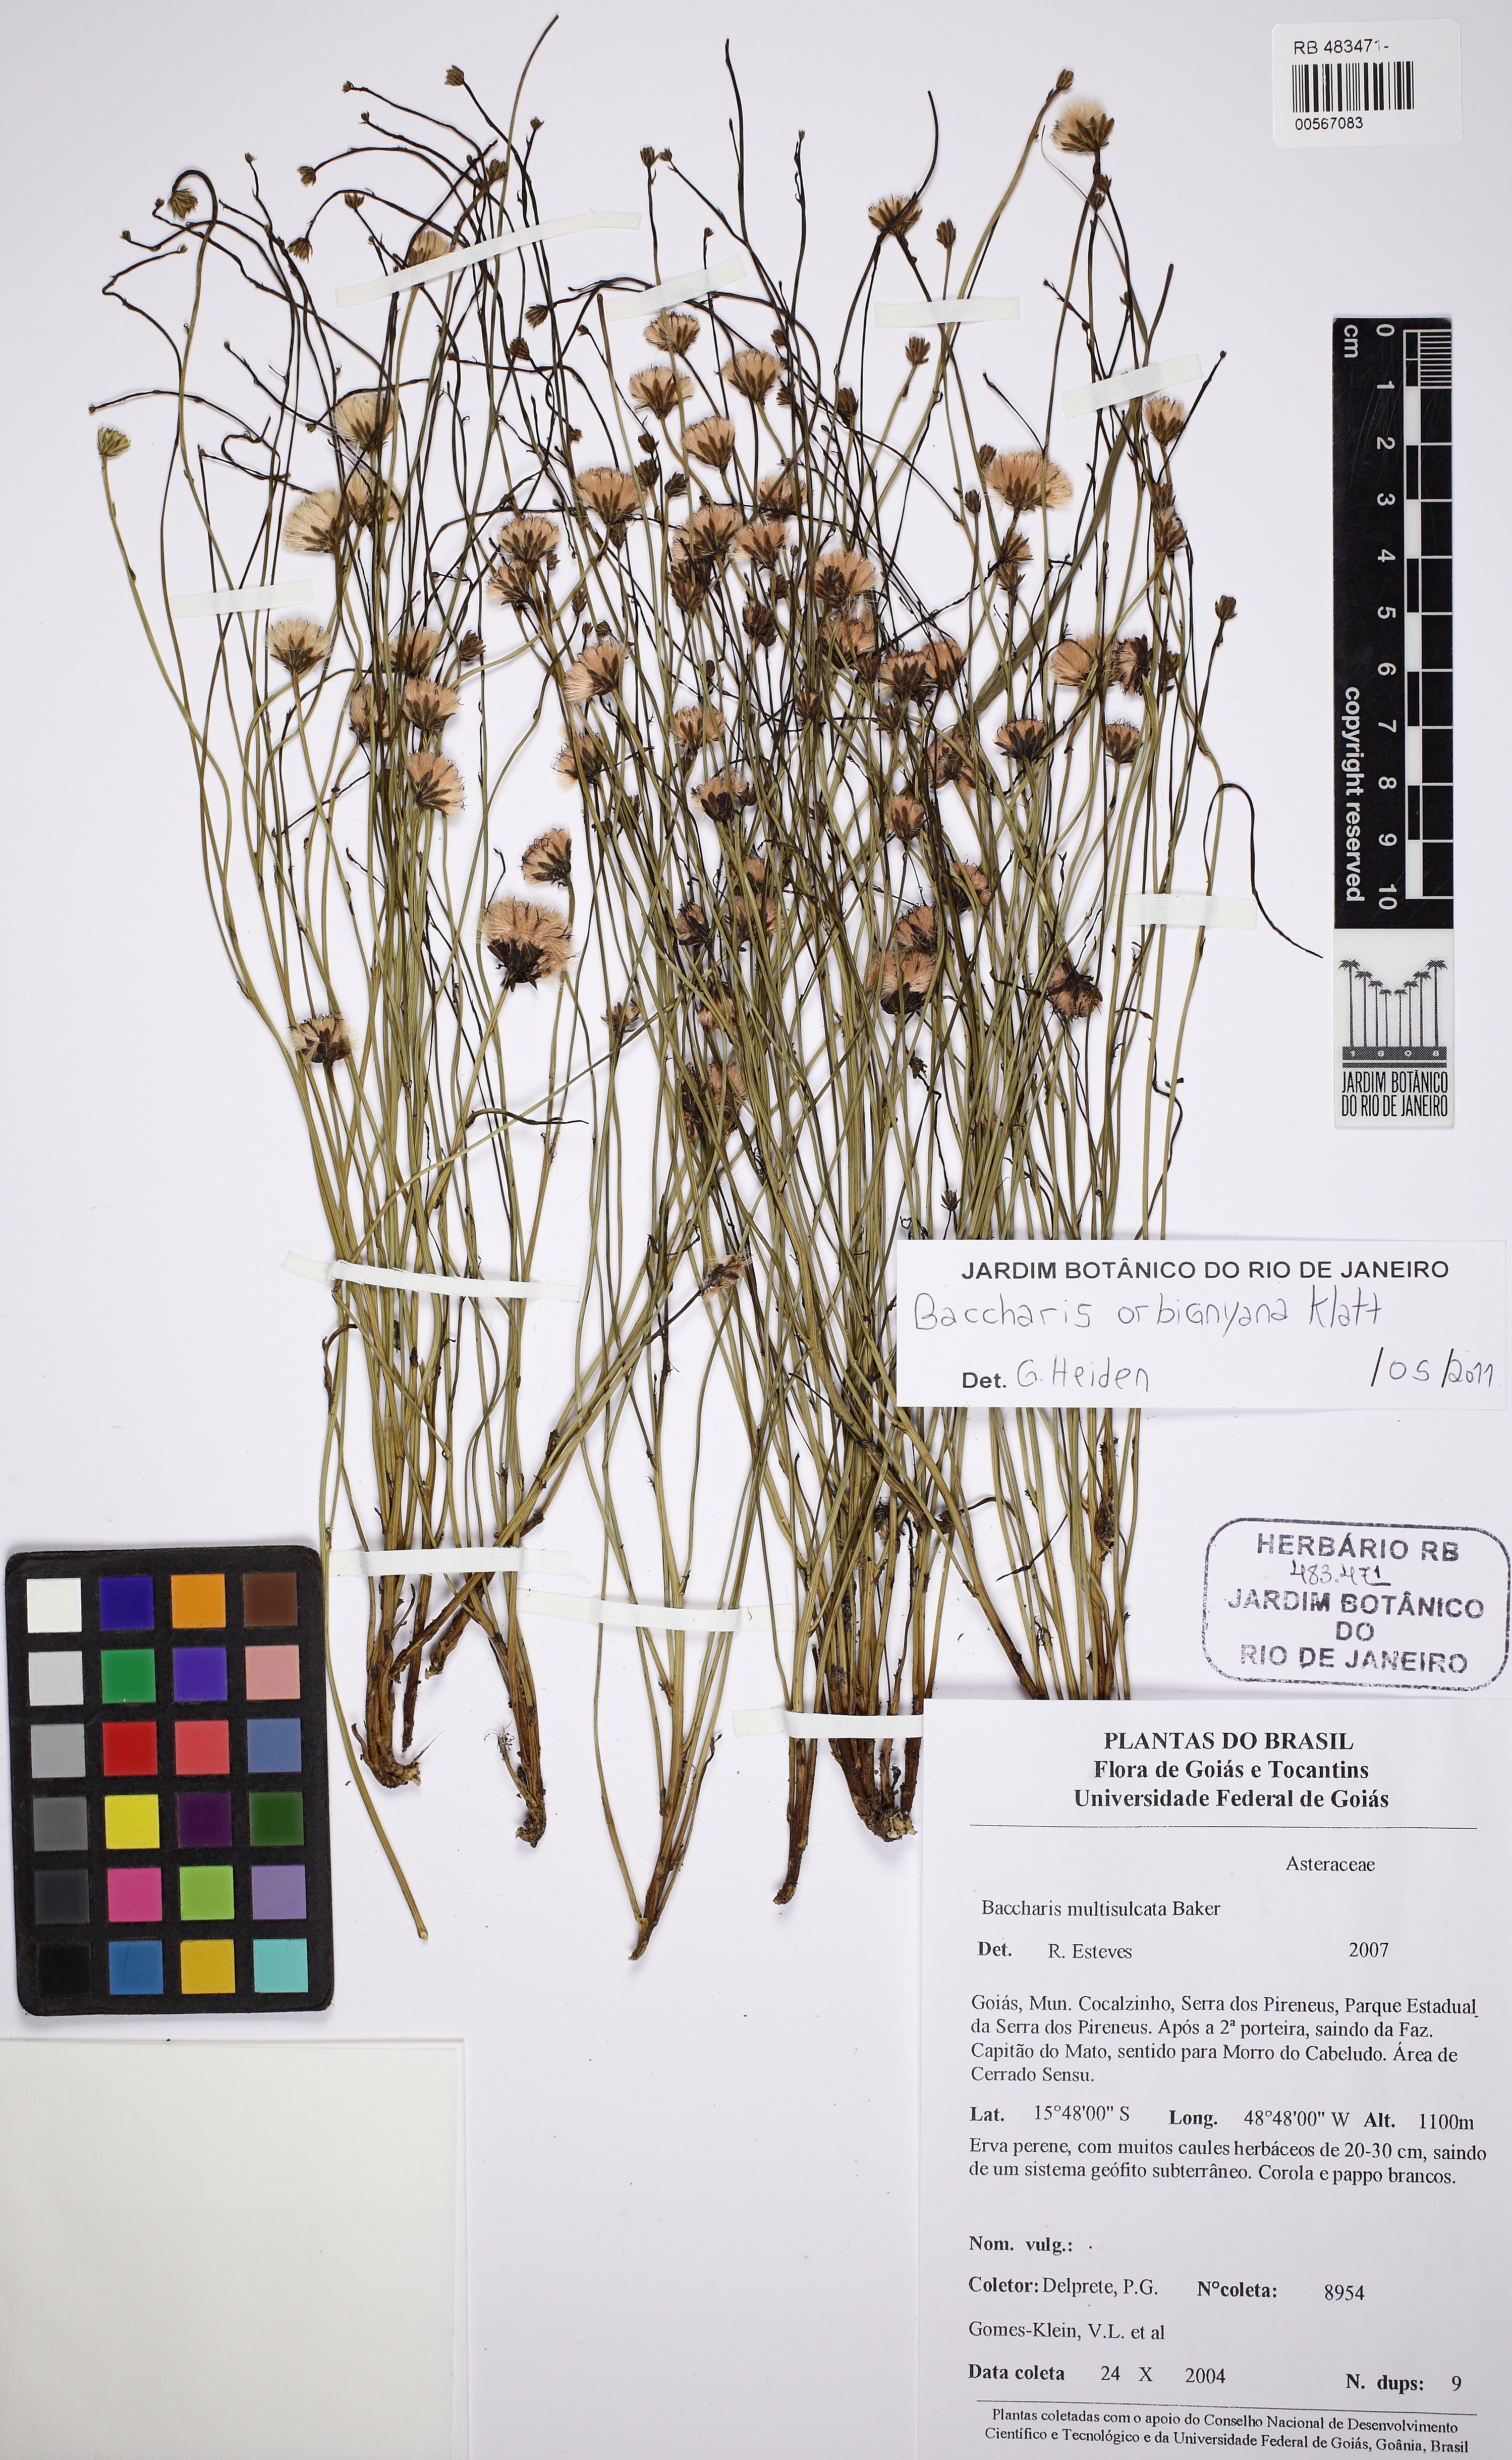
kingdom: Plantae
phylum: Tracheophyta
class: Magnoliopsida
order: Asterales
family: Asteraceae
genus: Baccharis
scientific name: Baccharis orbignyana
